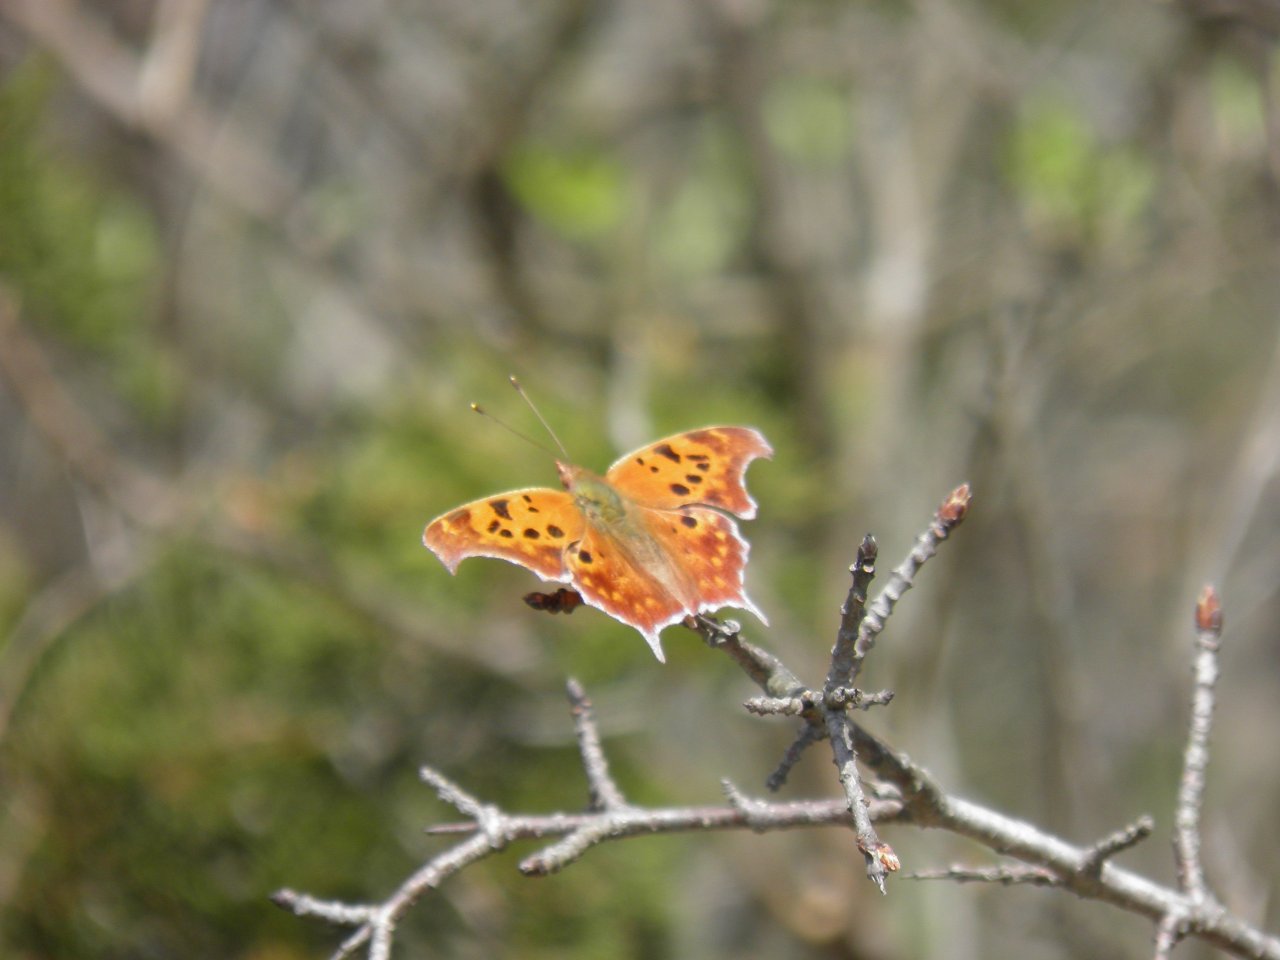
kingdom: Animalia
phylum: Arthropoda
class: Insecta
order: Lepidoptera
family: Nymphalidae
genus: Polygonia
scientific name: Polygonia interrogationis
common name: Question Mark
